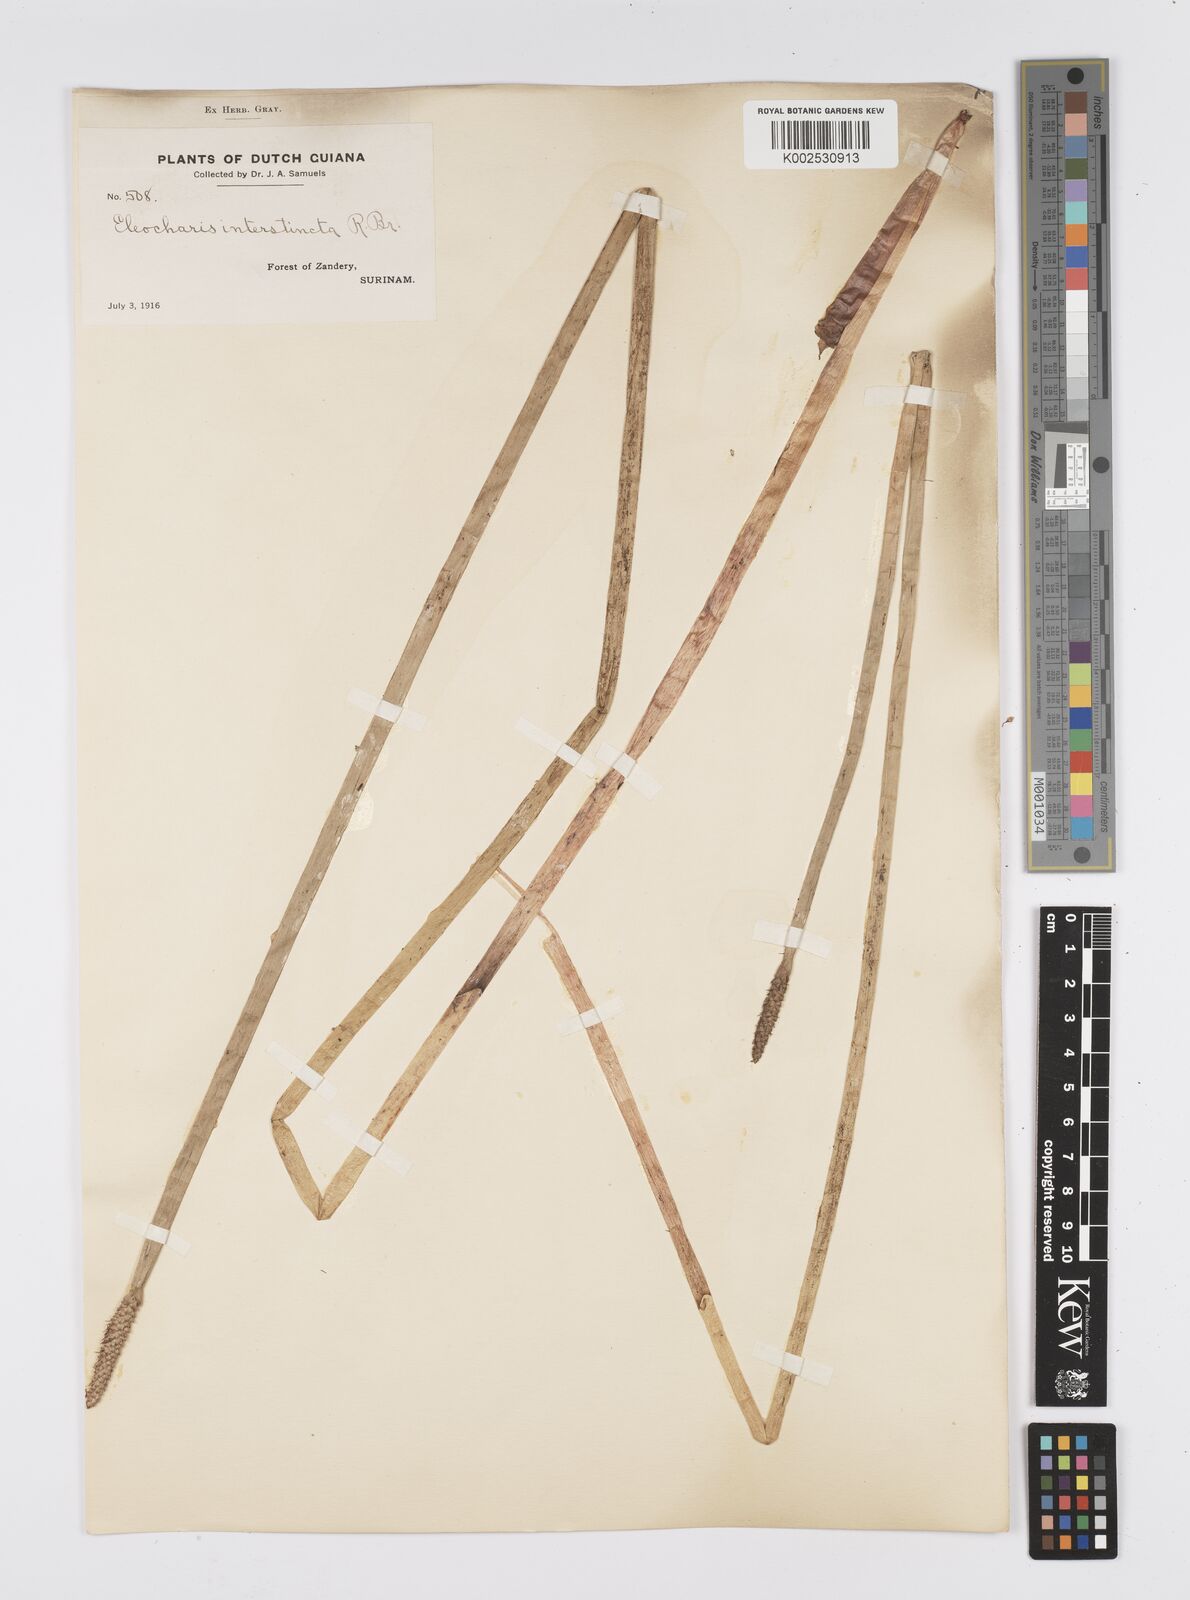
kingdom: Plantae
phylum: Tracheophyta
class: Liliopsida
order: Poales
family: Cyperaceae
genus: Eleocharis
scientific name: Eleocharis interstincta
